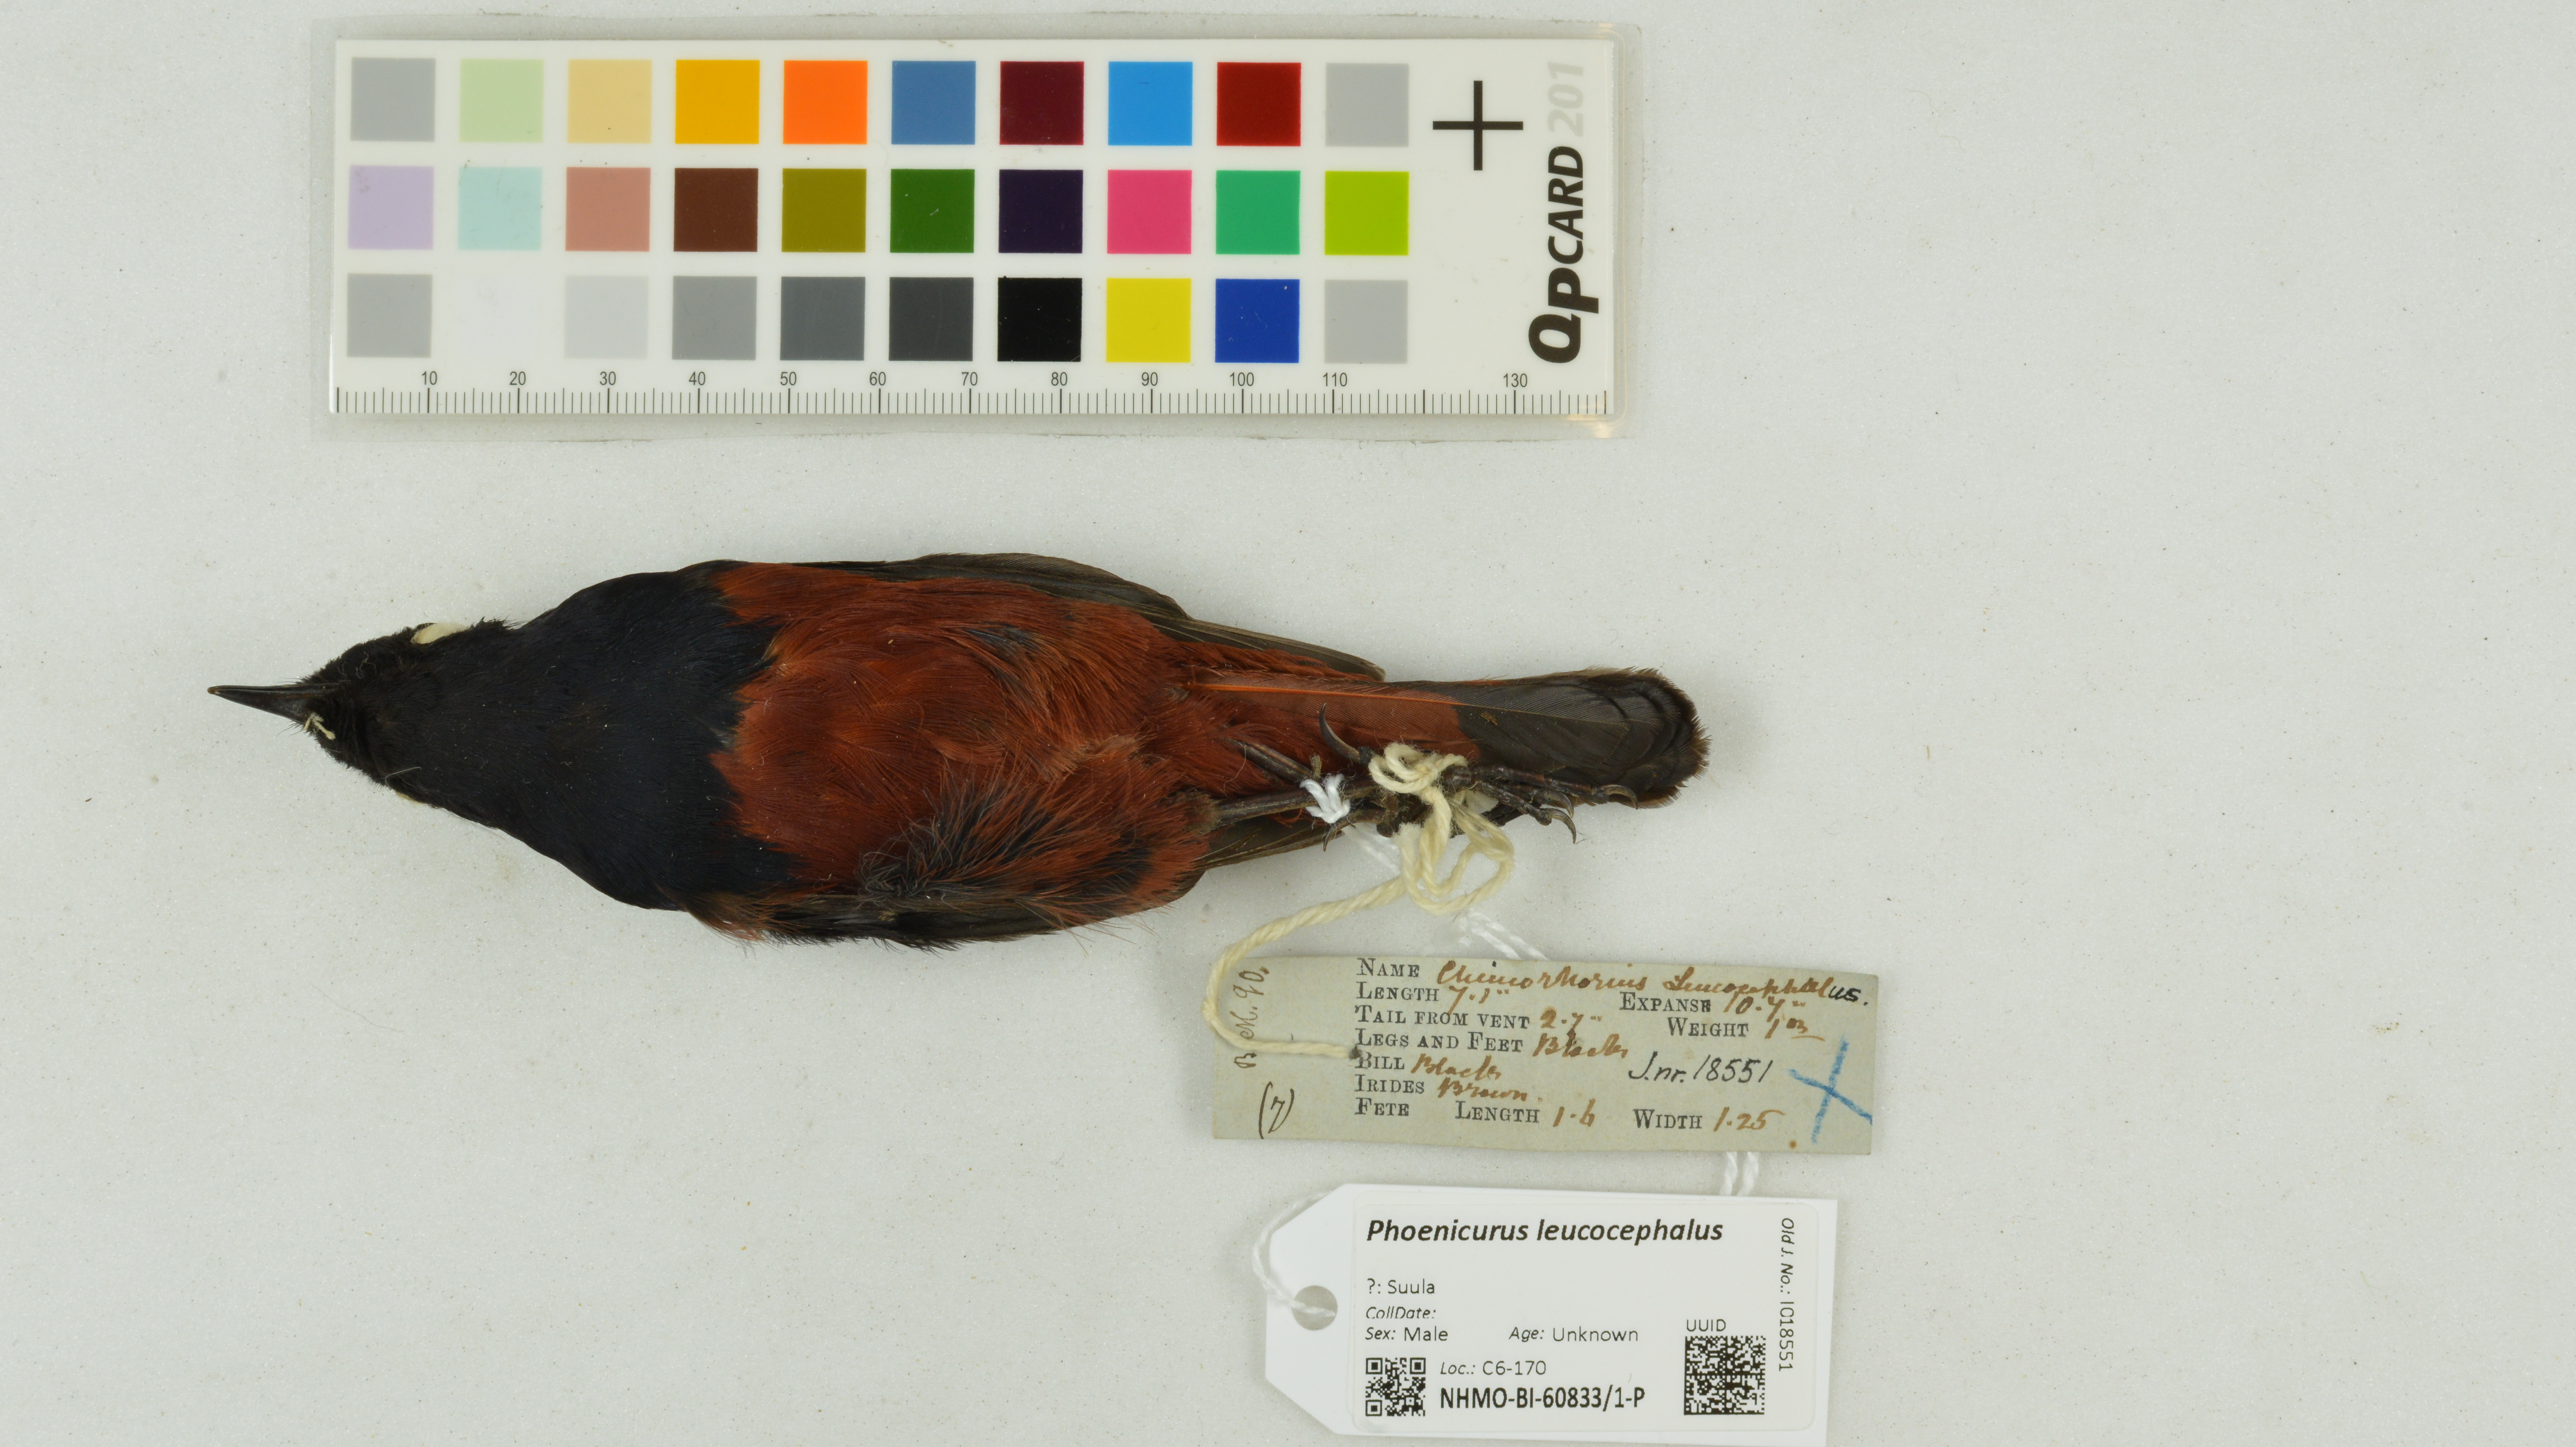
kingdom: Animalia
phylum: Chordata
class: Aves
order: Passeriformes
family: Muscicapidae
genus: Chaimarrornis
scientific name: Chaimarrornis leucocephalus
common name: White-capped redstart
